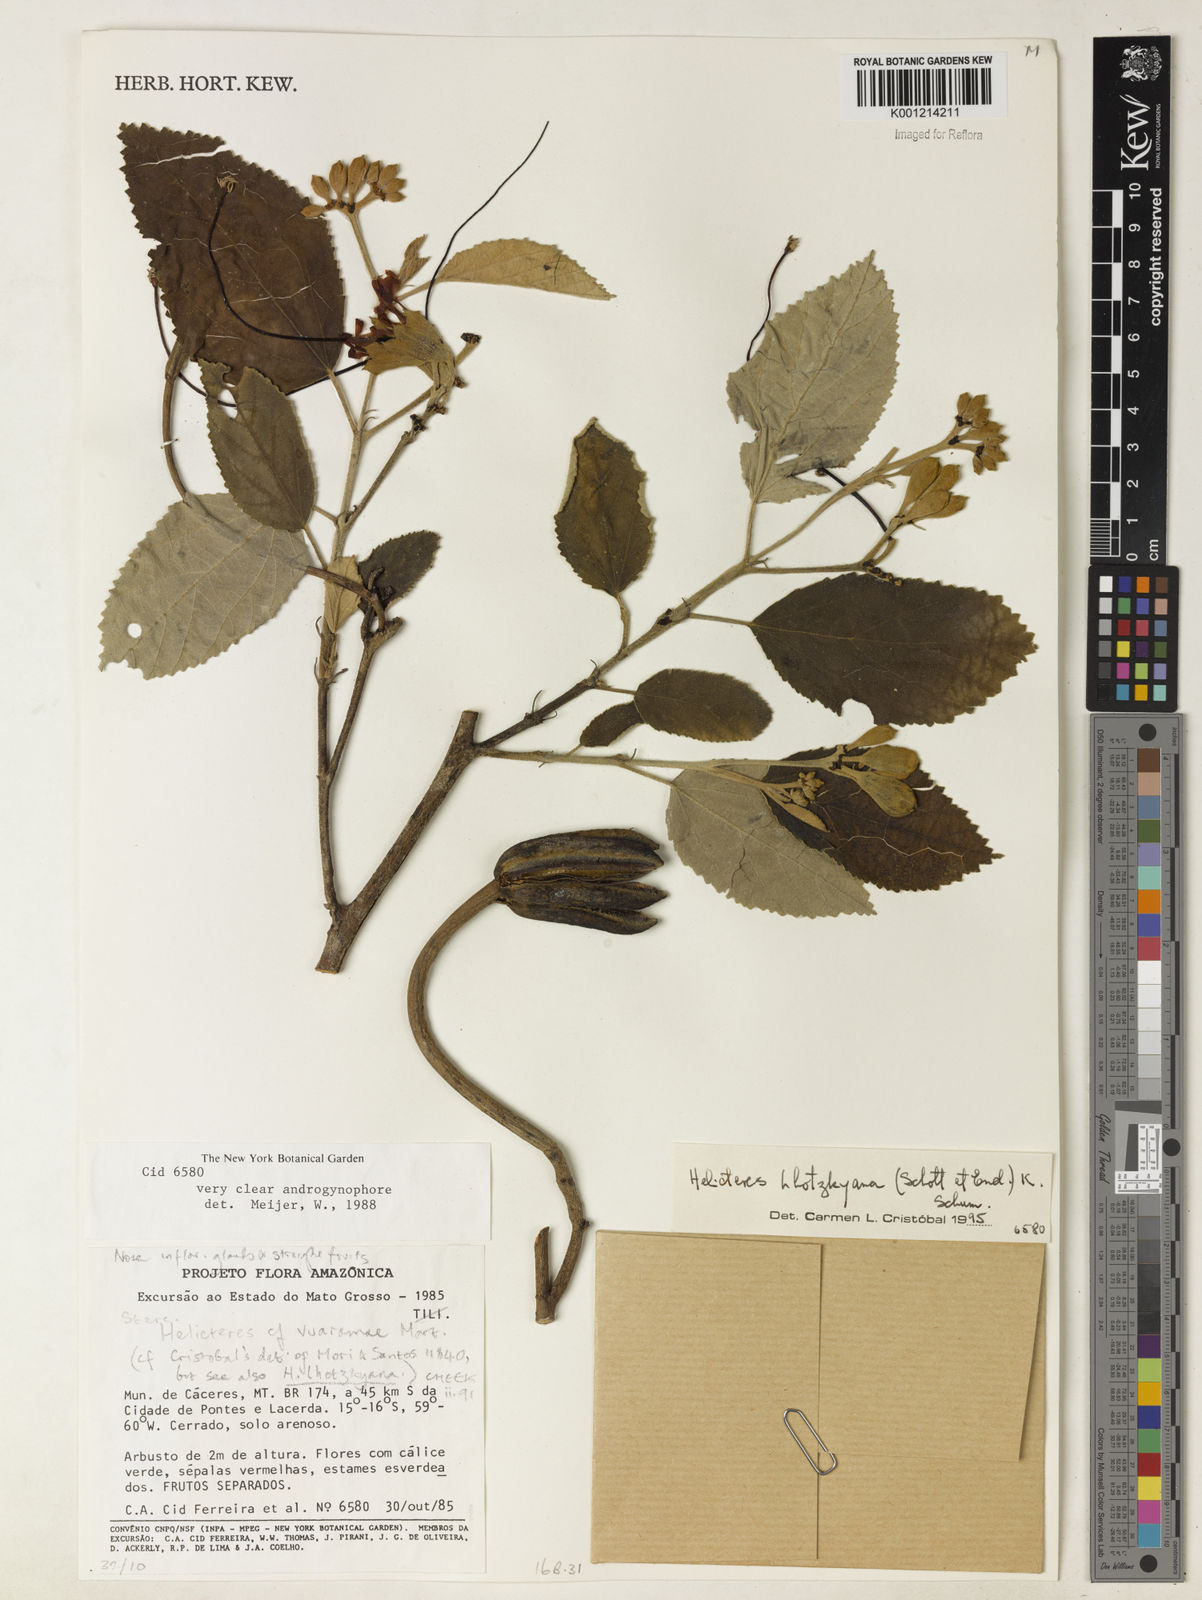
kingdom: Plantae
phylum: Tracheophyta
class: Magnoliopsida
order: Malvales
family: Malvaceae
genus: Helicteres
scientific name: Helicteres lhotzkyana
